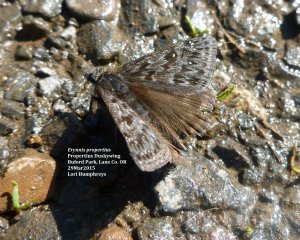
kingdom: Animalia
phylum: Arthropoda
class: Insecta
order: Lepidoptera
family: Hesperiidae
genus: Erynnis
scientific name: Erynnis propertius
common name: Propertius Duskywing
